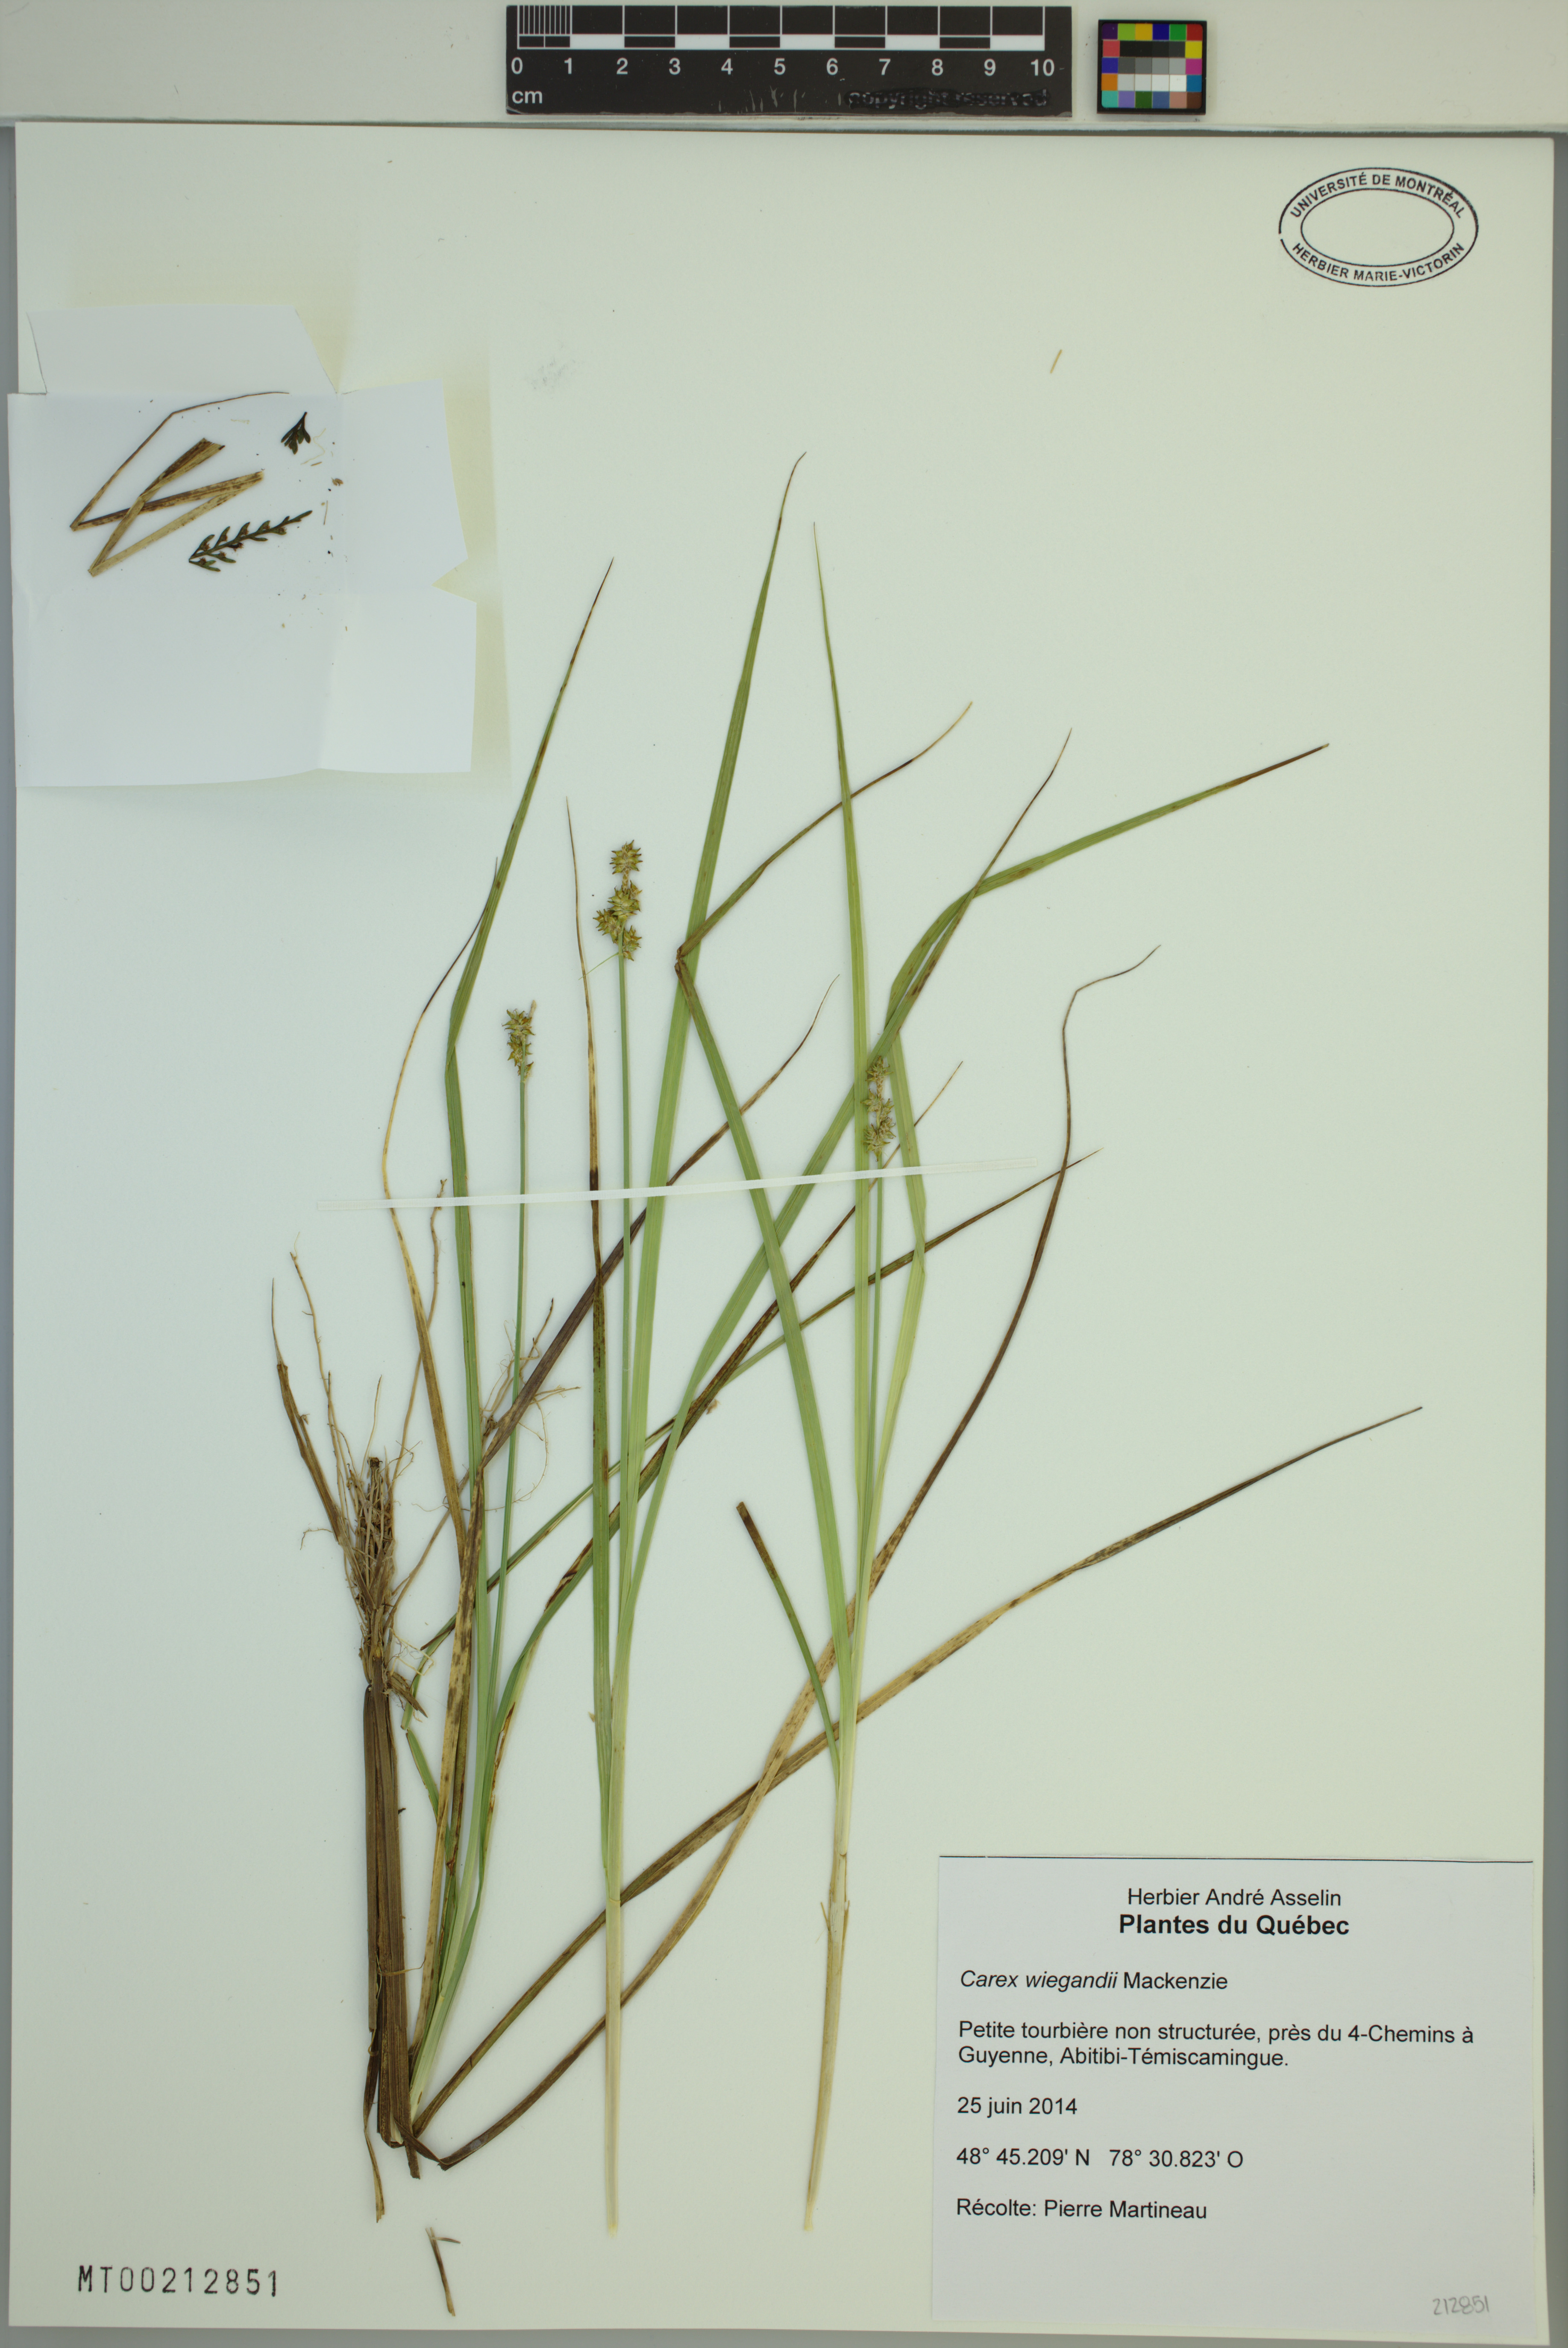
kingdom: Plantae
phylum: Tracheophyta
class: Liliopsida
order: Poales
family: Cyperaceae
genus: Carex
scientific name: Carex wiegandii
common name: Wiegand's sedge
